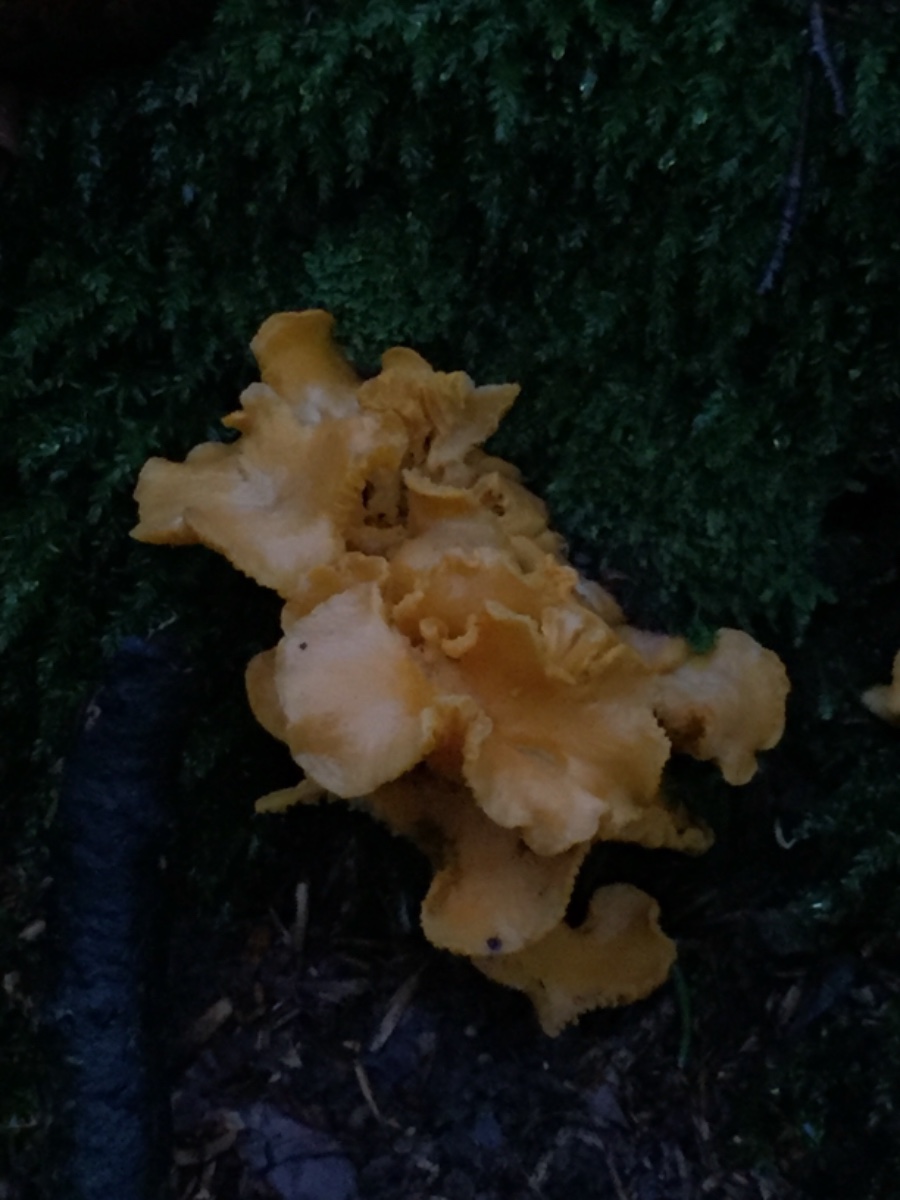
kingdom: Fungi
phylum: Basidiomycota
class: Agaricomycetes
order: Cantharellales
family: Hydnaceae
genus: Cantharellus
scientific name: Cantharellus cibarius
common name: almindelig kantarel
